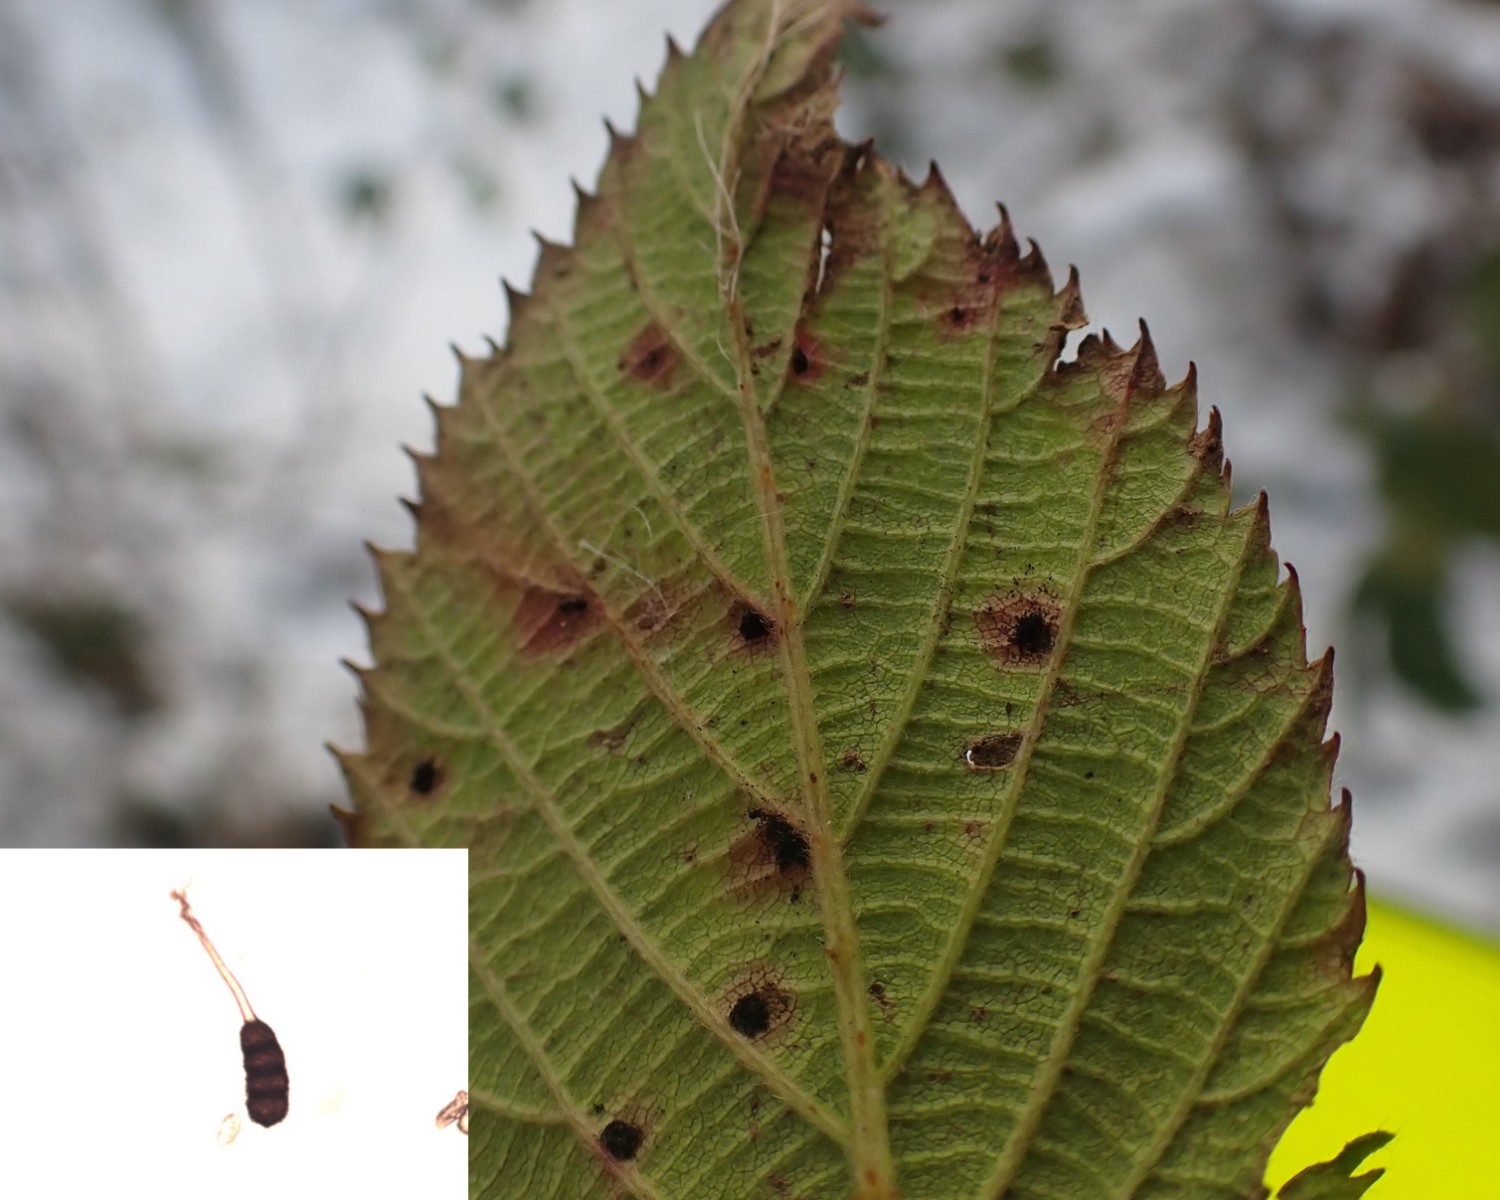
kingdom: Fungi
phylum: Basidiomycota
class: Pucciniomycetes
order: Pucciniales
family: Phragmidiaceae
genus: Phragmidium
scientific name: Phragmidium violaceum
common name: violet flercellerust
